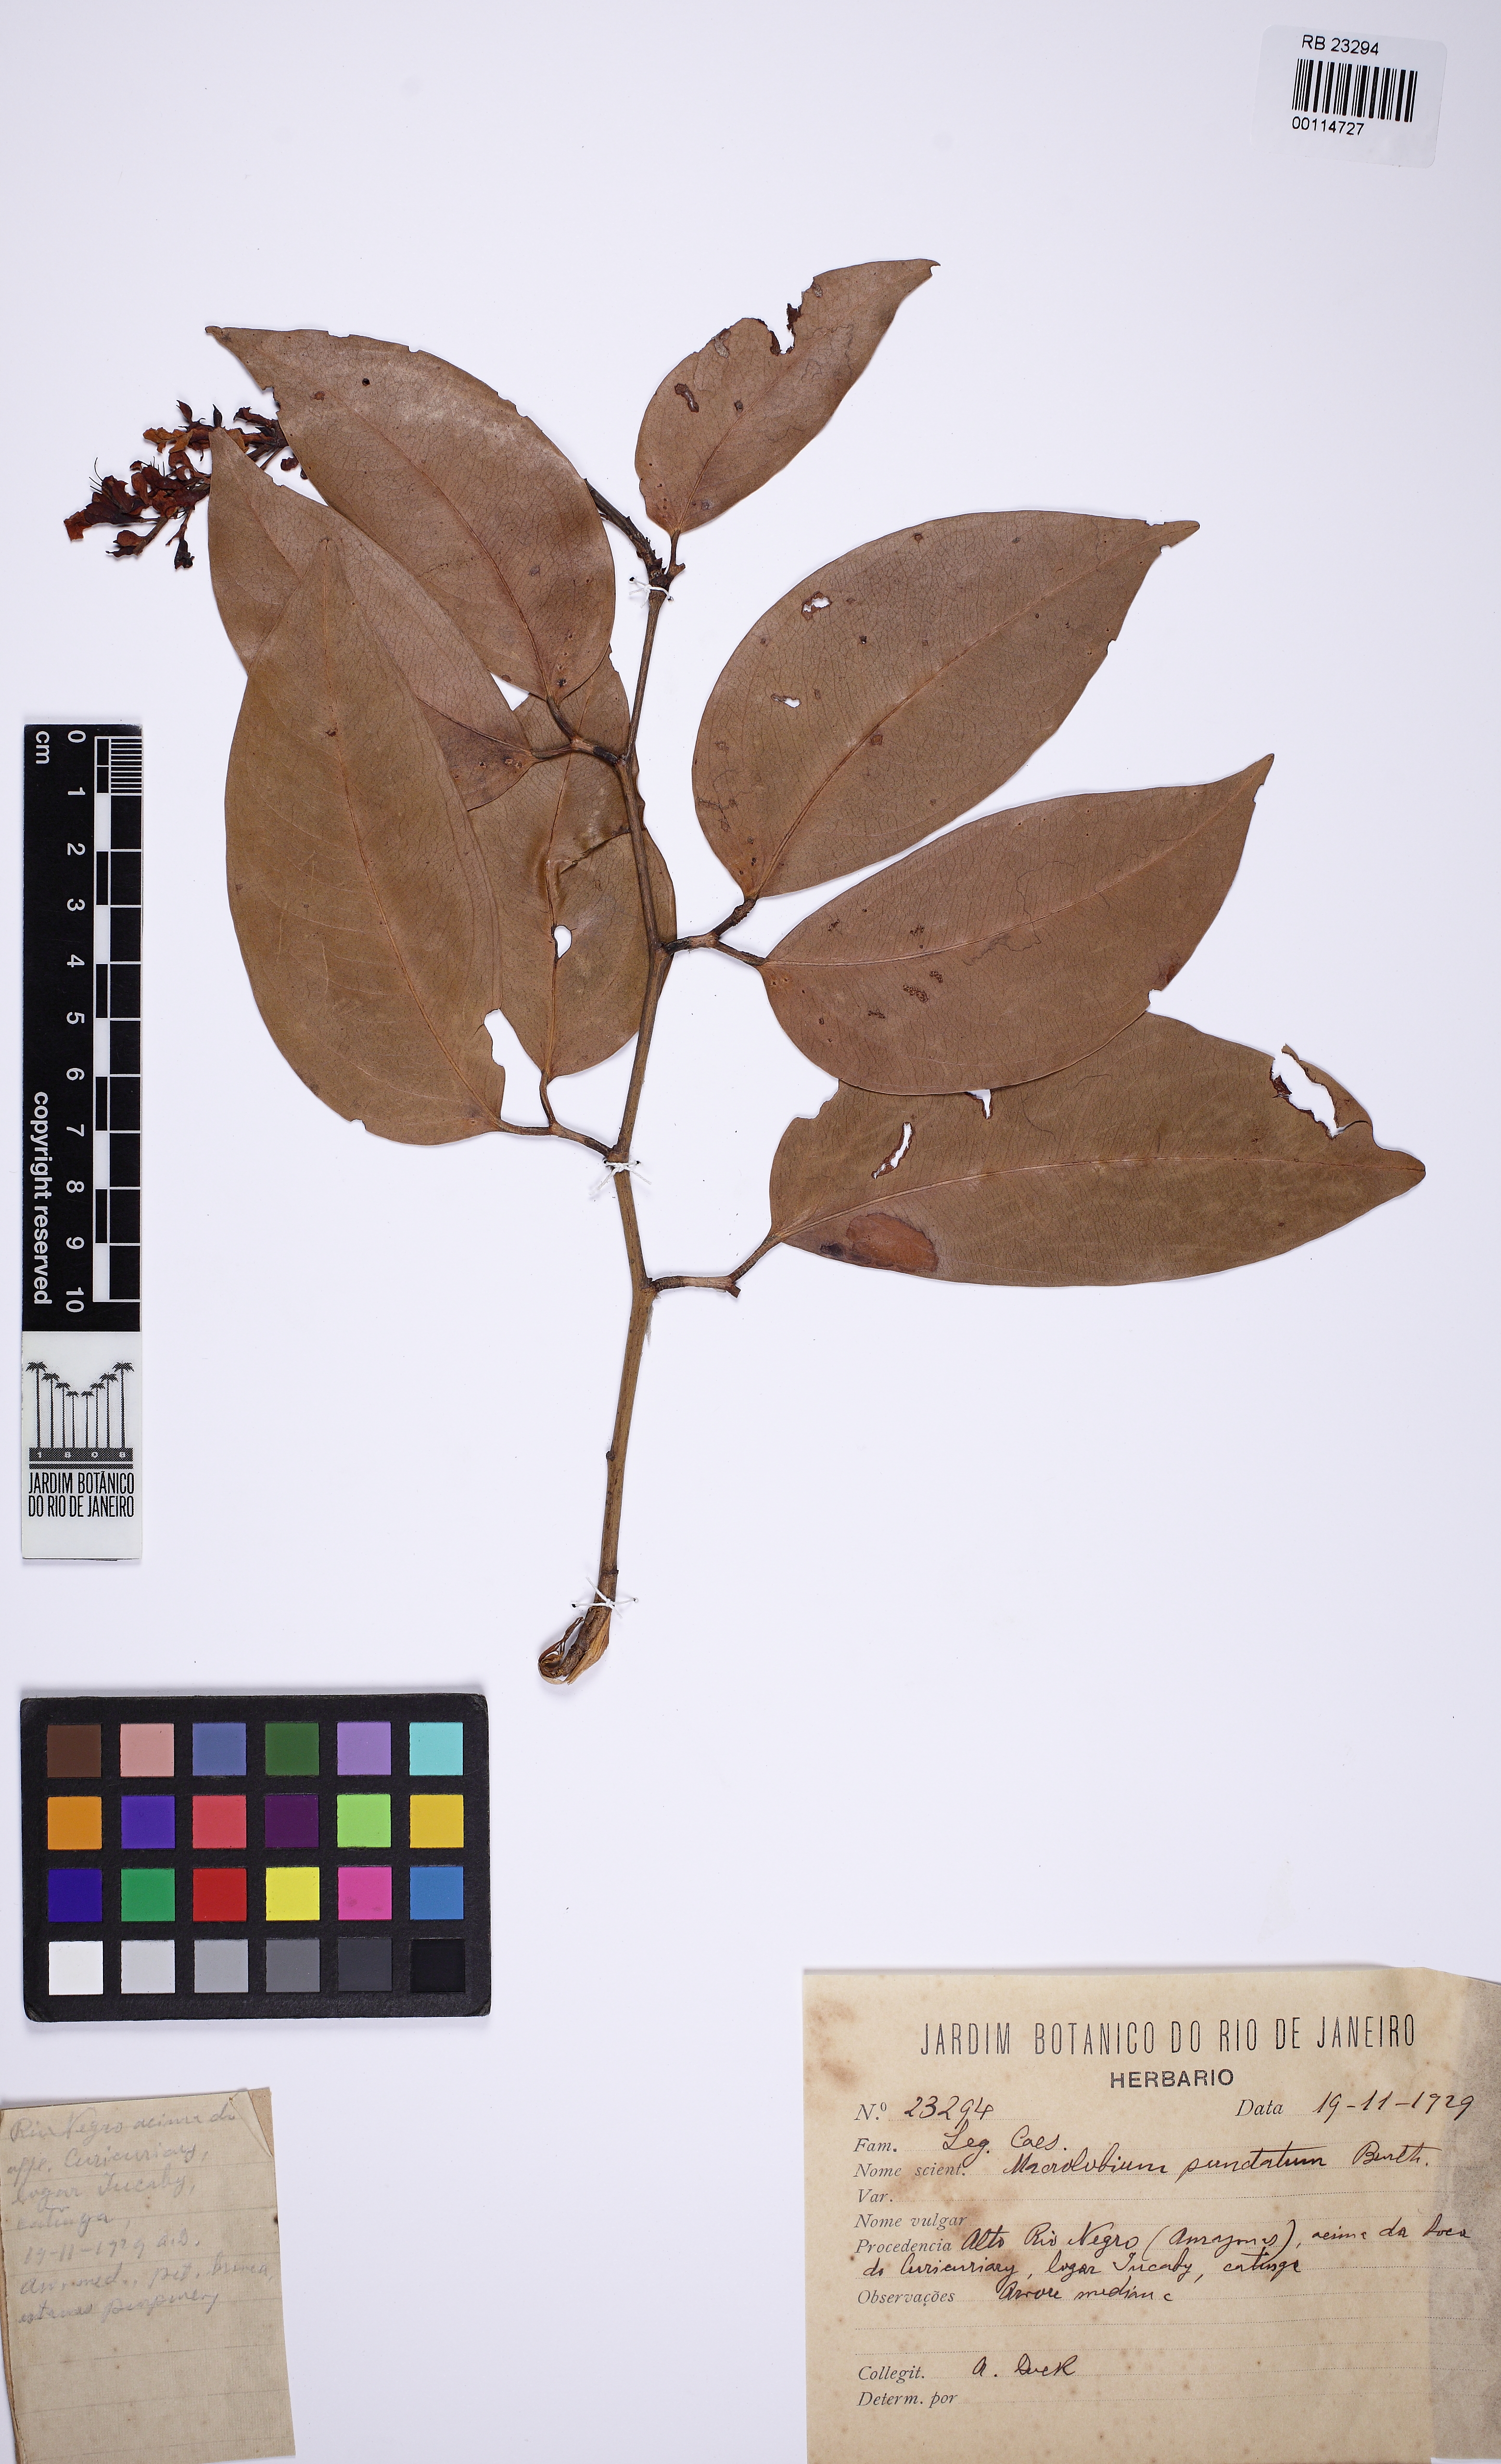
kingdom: Plantae
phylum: Tracheophyta
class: Magnoliopsida
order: Fabales
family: Fabaceae
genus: Jacqueshuberia
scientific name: Jacqueshuberia purpurea
